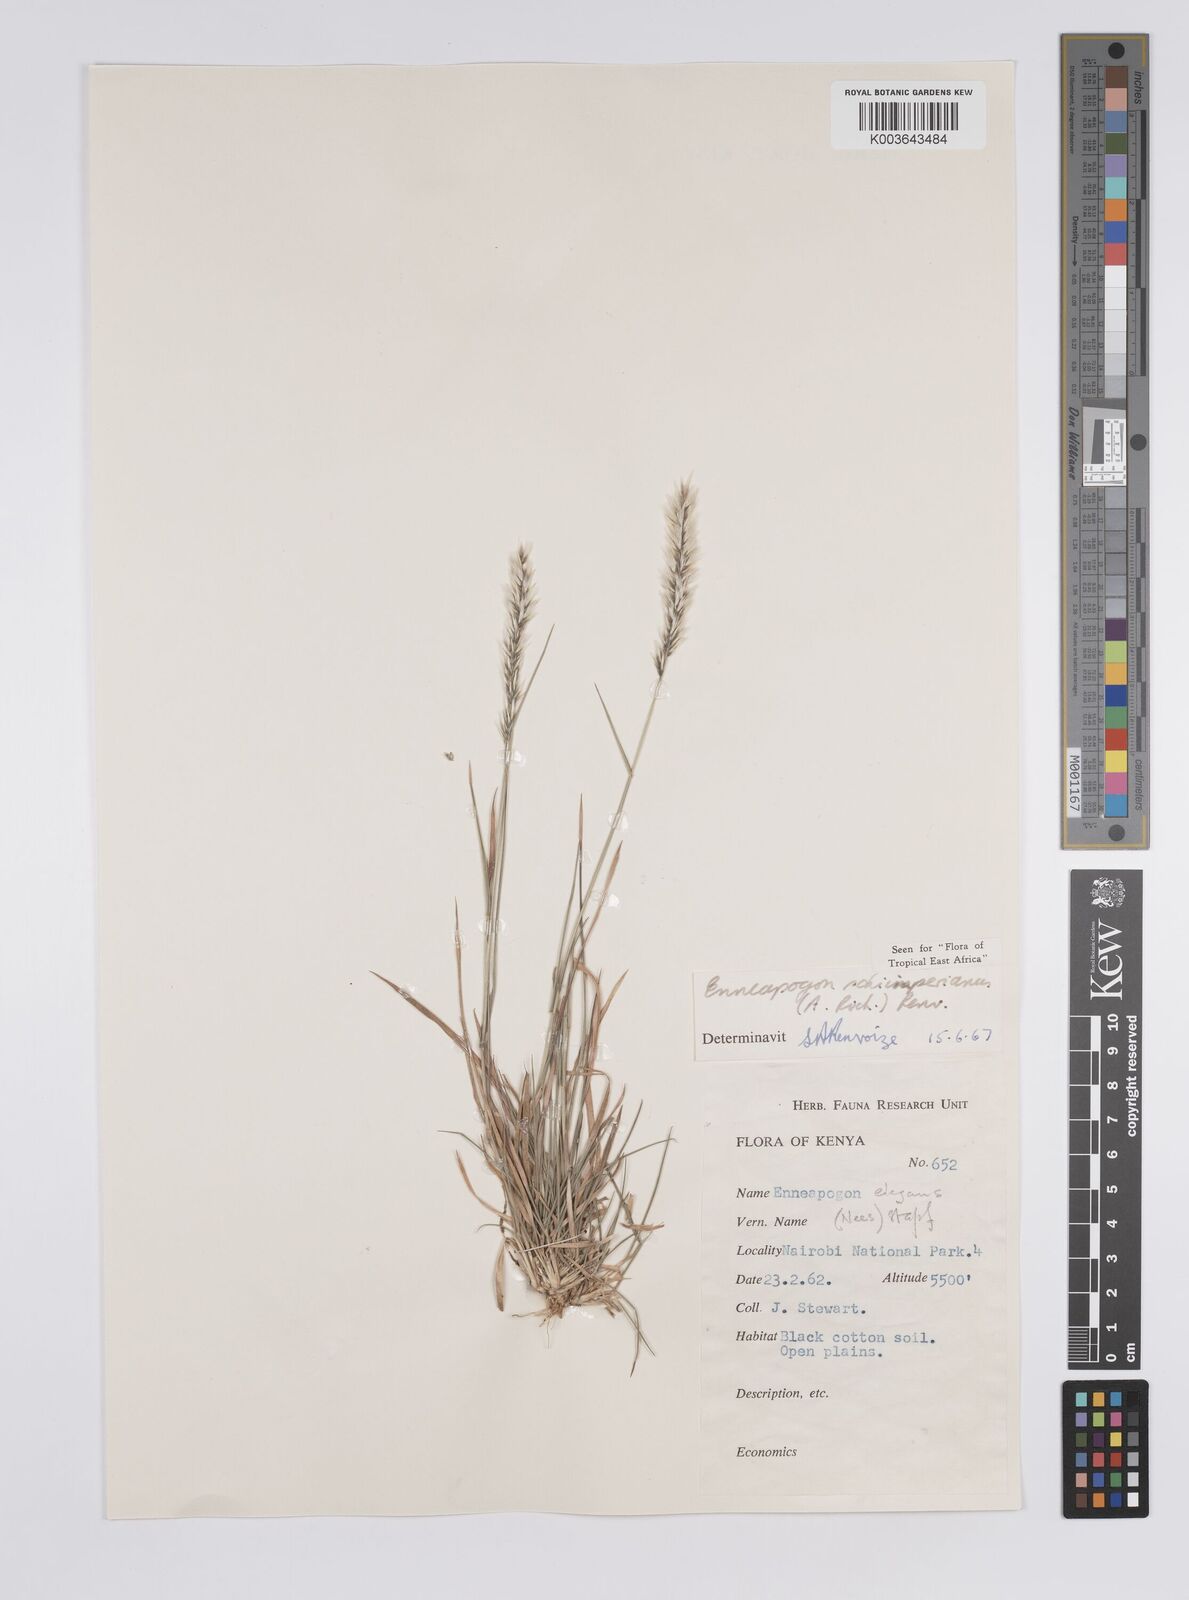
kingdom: Plantae
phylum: Tracheophyta
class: Liliopsida
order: Poales
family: Poaceae
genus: Enneapogon
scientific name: Enneapogon persicus
